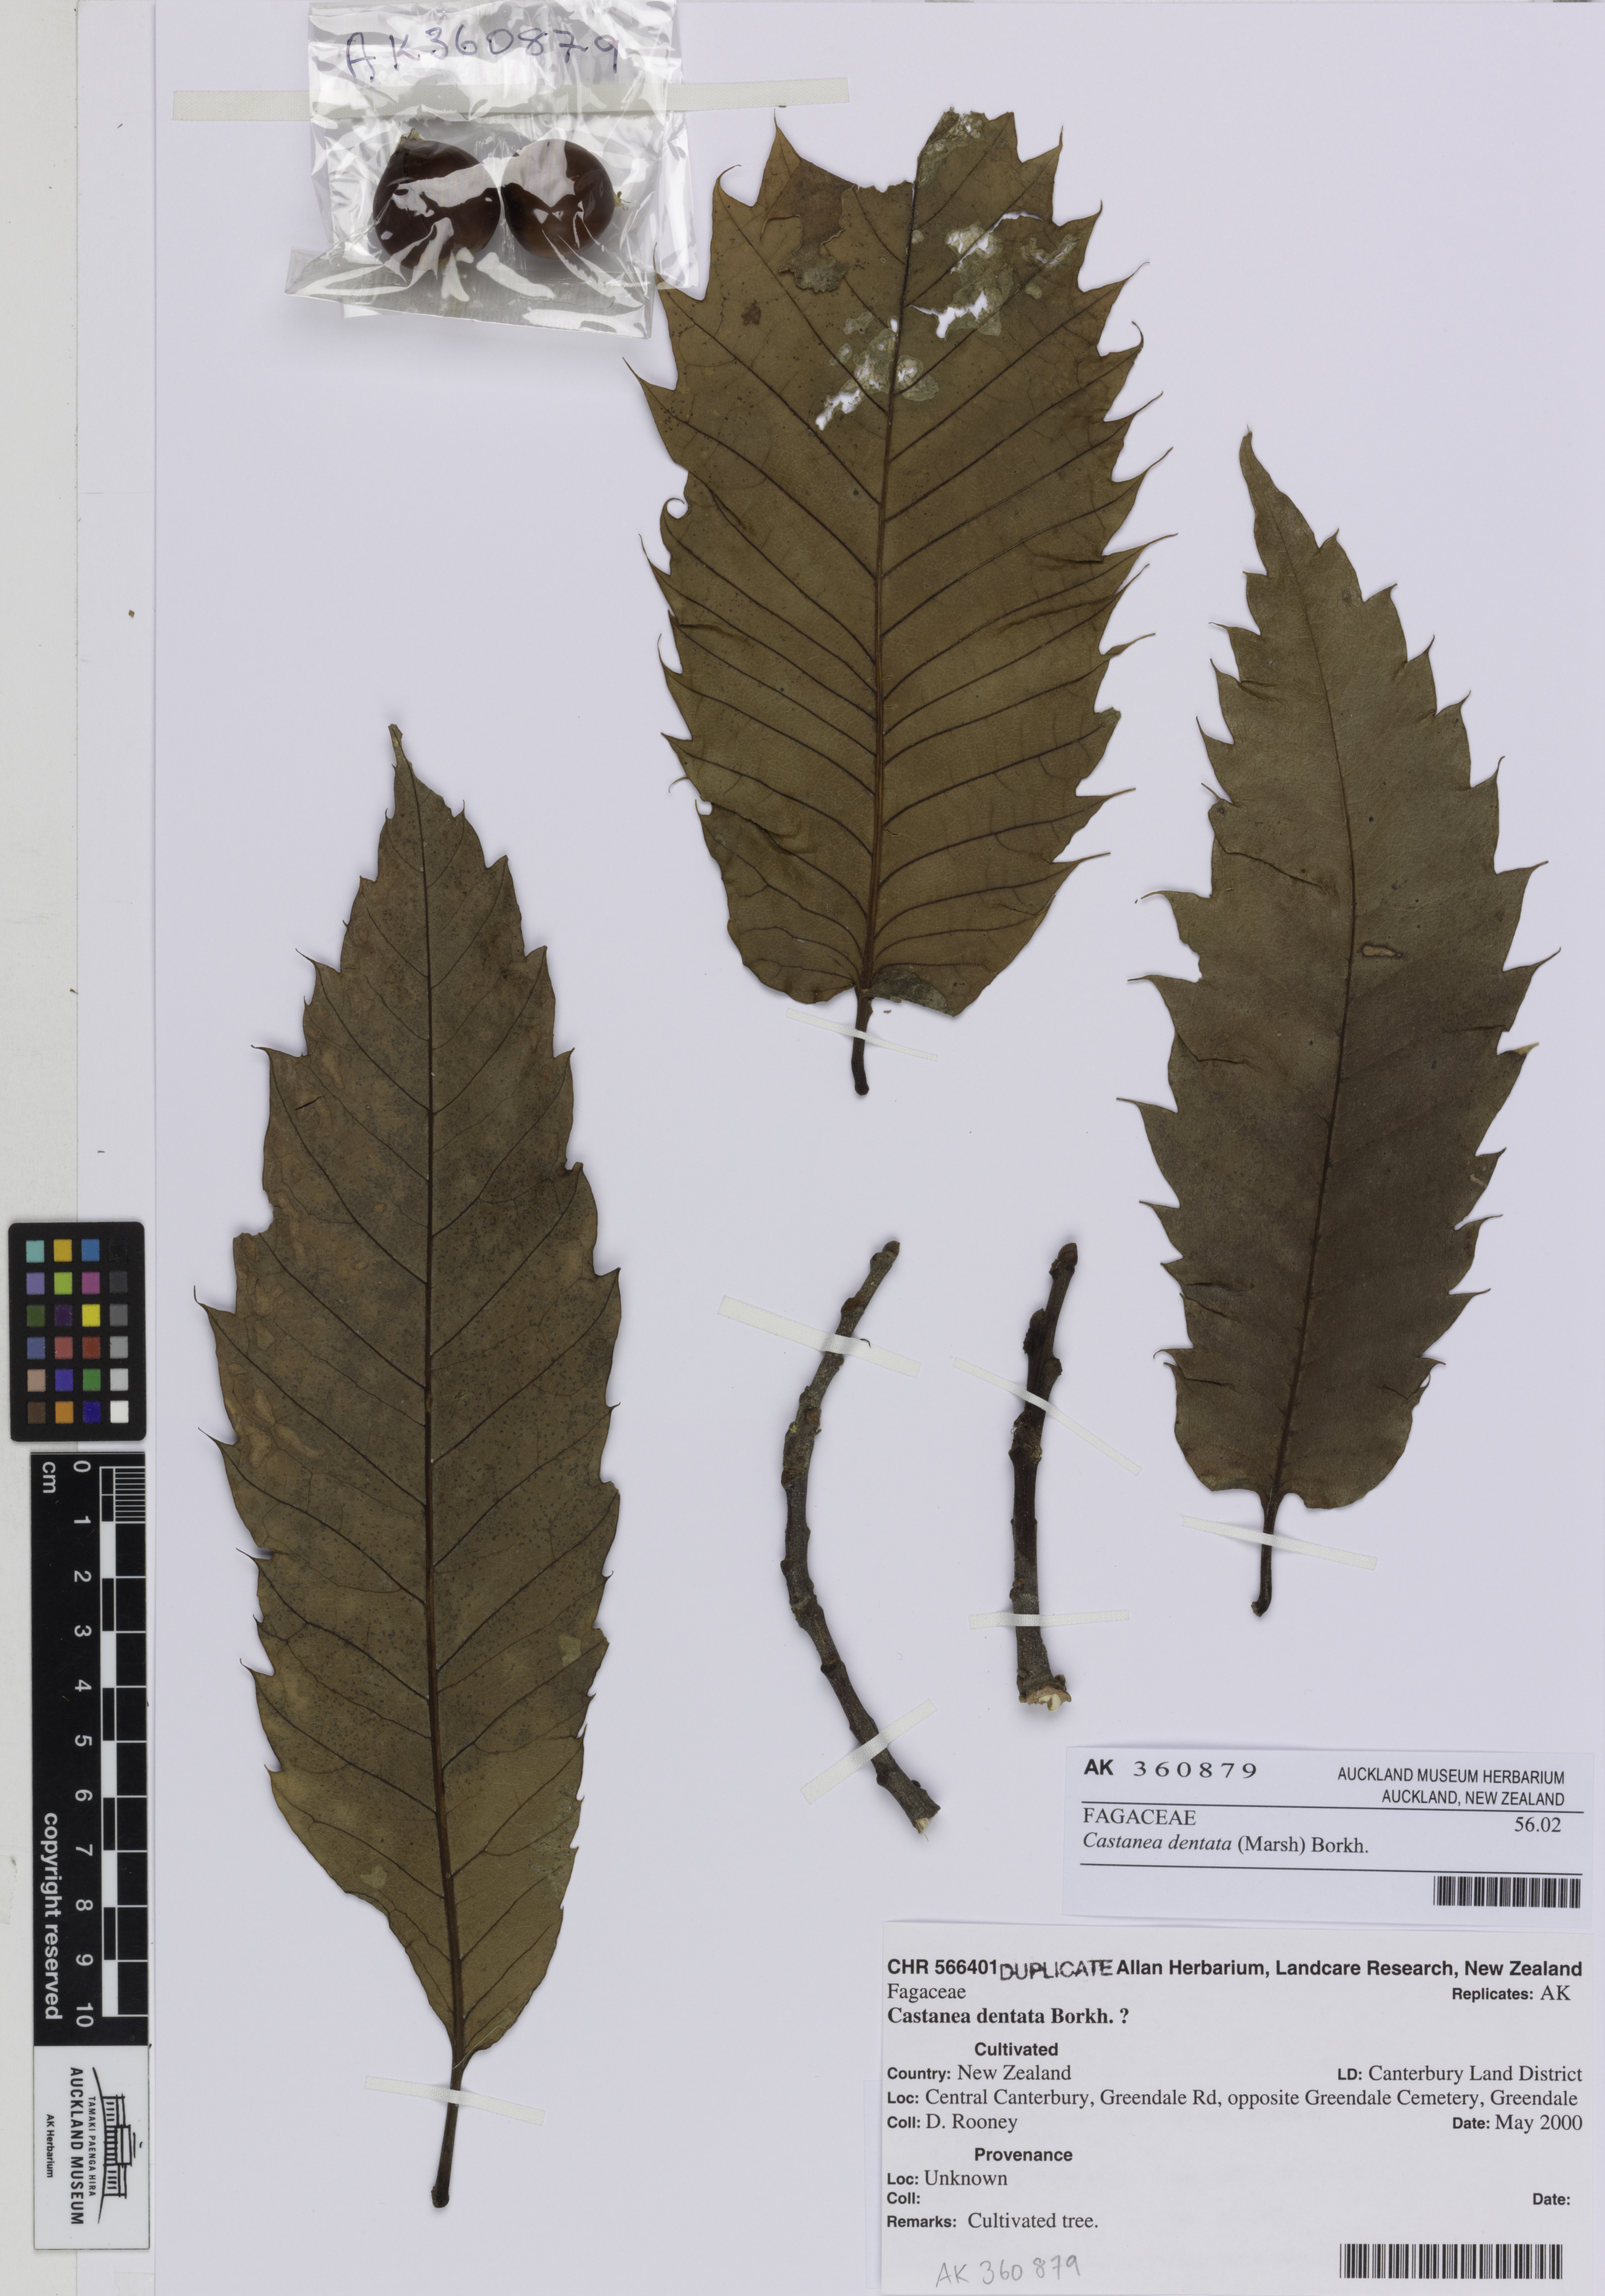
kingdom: Plantae
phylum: Tracheophyta
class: Magnoliopsida
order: Fagales
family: Fagaceae
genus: Castanea
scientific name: Castanea dentata
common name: American chestnut
